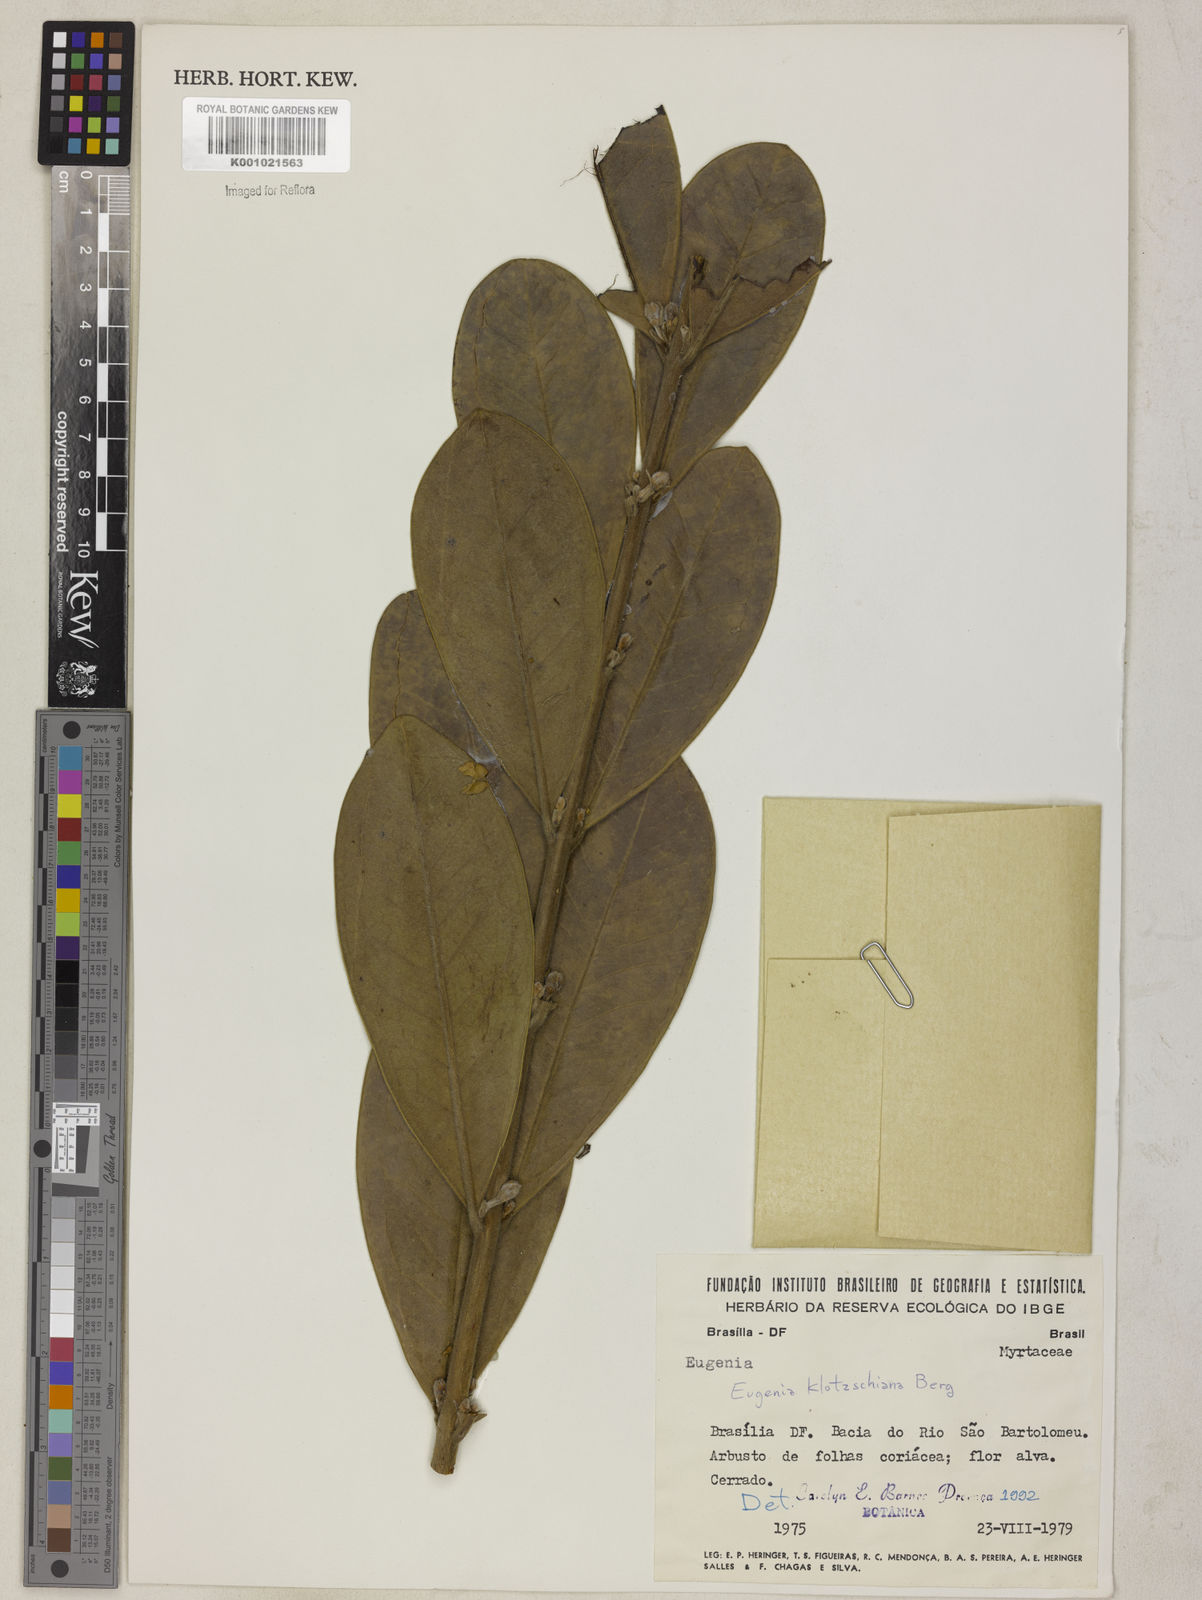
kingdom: Plantae
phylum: Tracheophyta
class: Magnoliopsida
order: Myrtales
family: Myrtaceae
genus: Eugenia
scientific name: Eugenia klotzschiana
